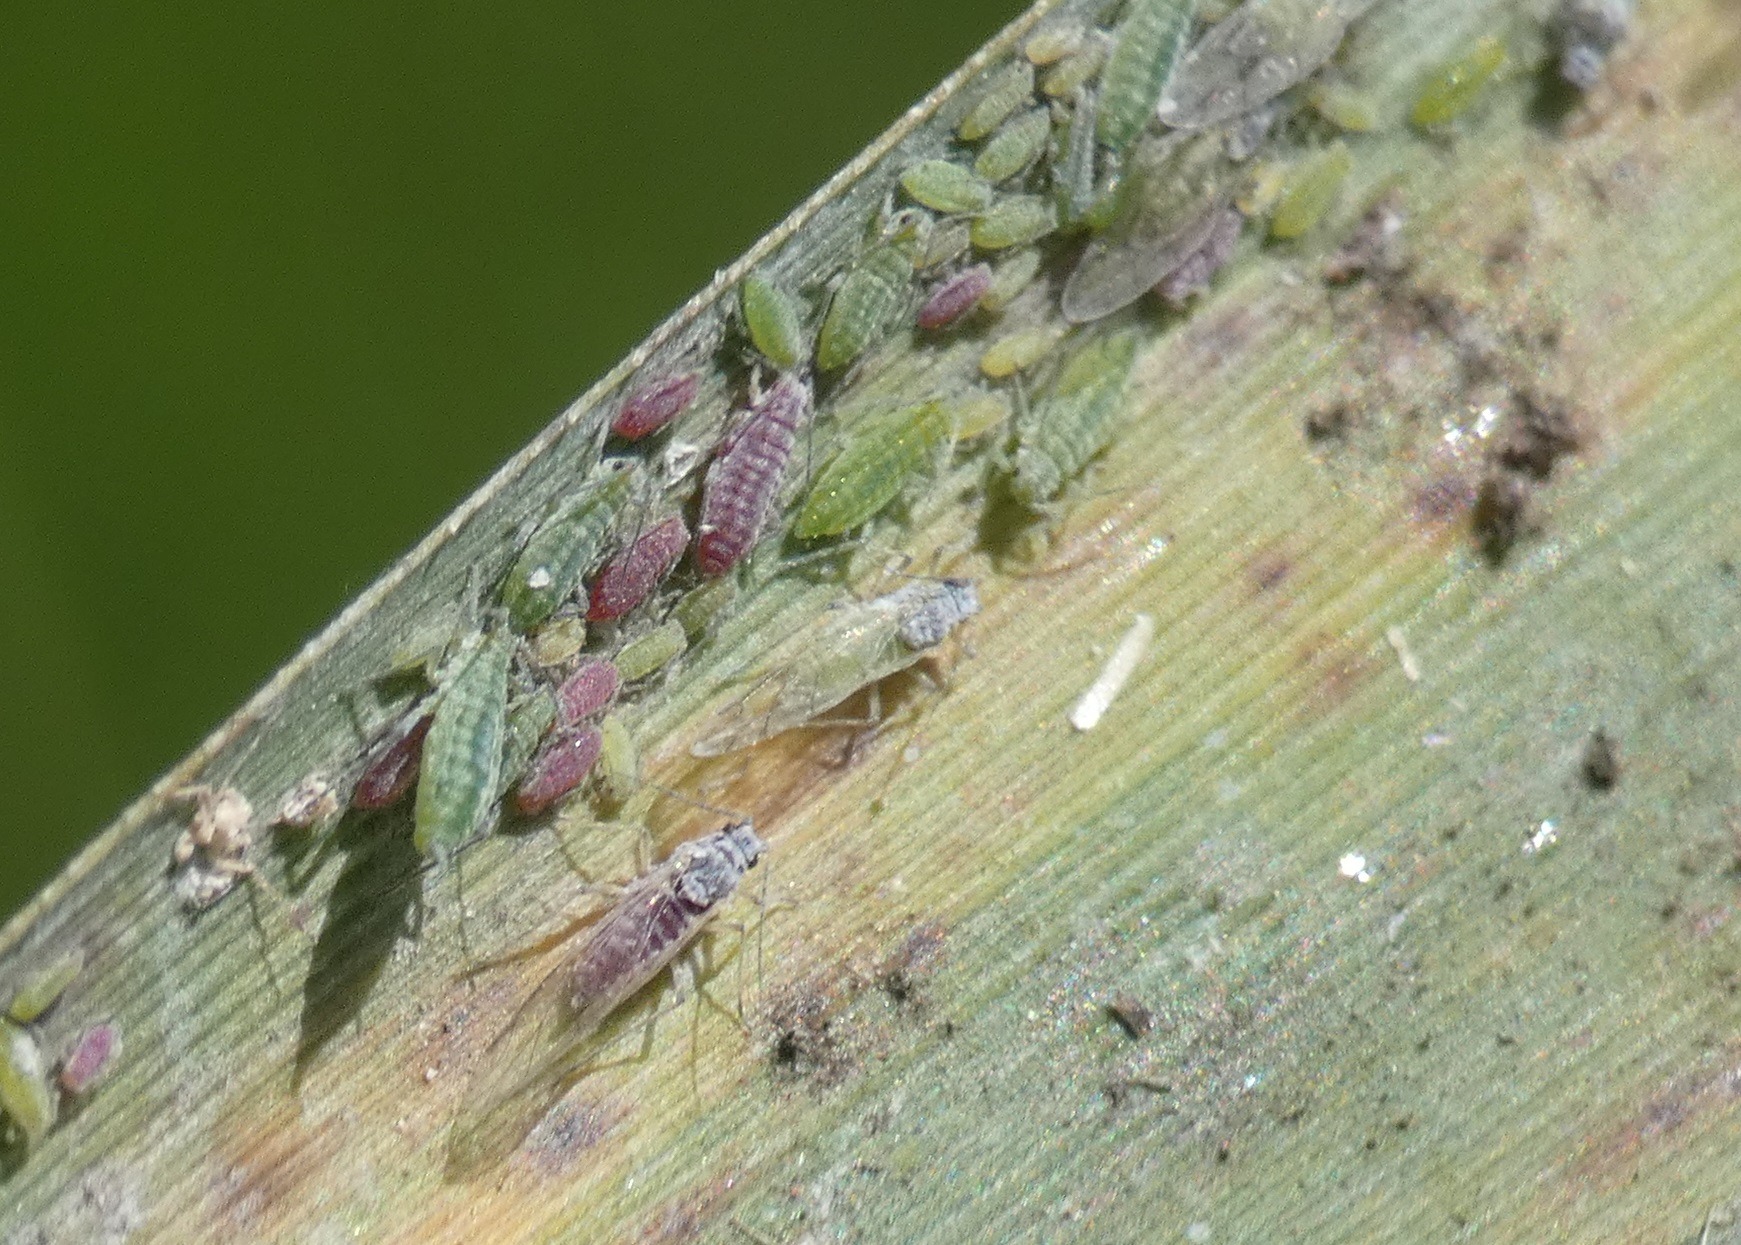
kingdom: Animalia
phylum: Arthropoda
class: Insecta
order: Hemiptera
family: Aphididae
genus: Hyalopterus
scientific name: Hyalopterus pruni
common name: Melet blommebladlus
